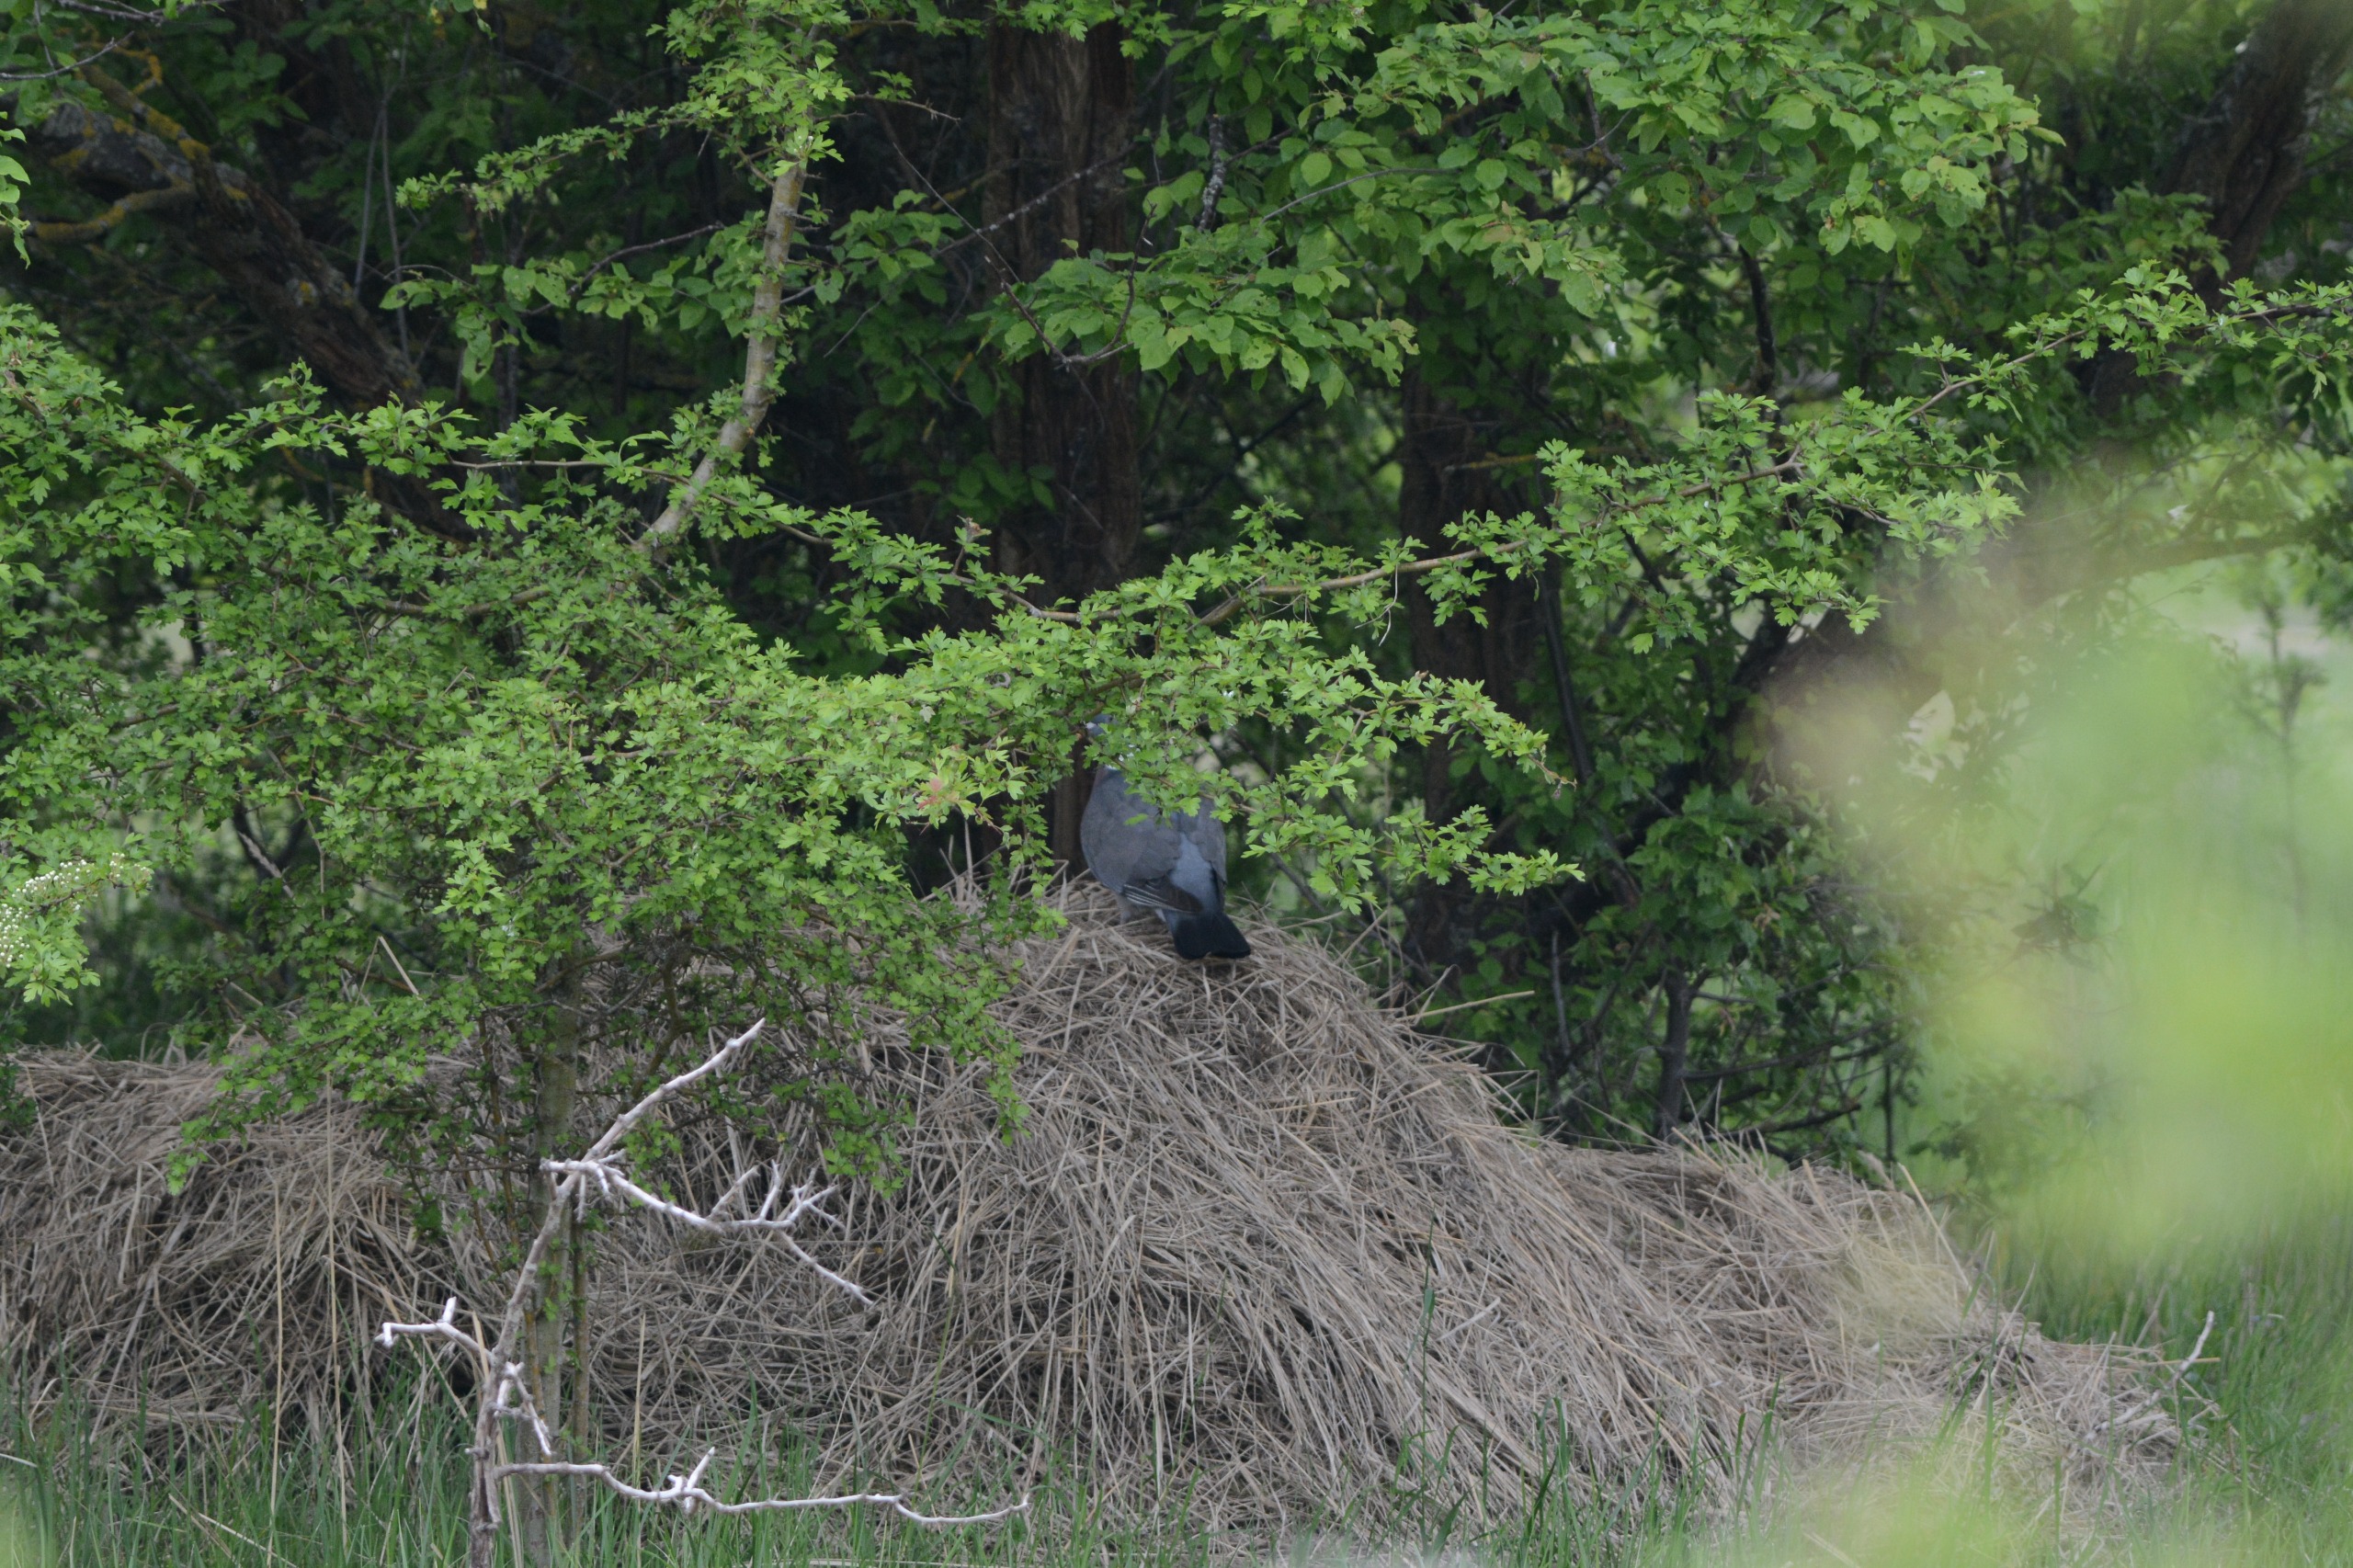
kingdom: Animalia
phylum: Chordata
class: Aves
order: Columbiformes
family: Columbidae
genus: Columba
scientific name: Columba palumbus
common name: Ringdue
